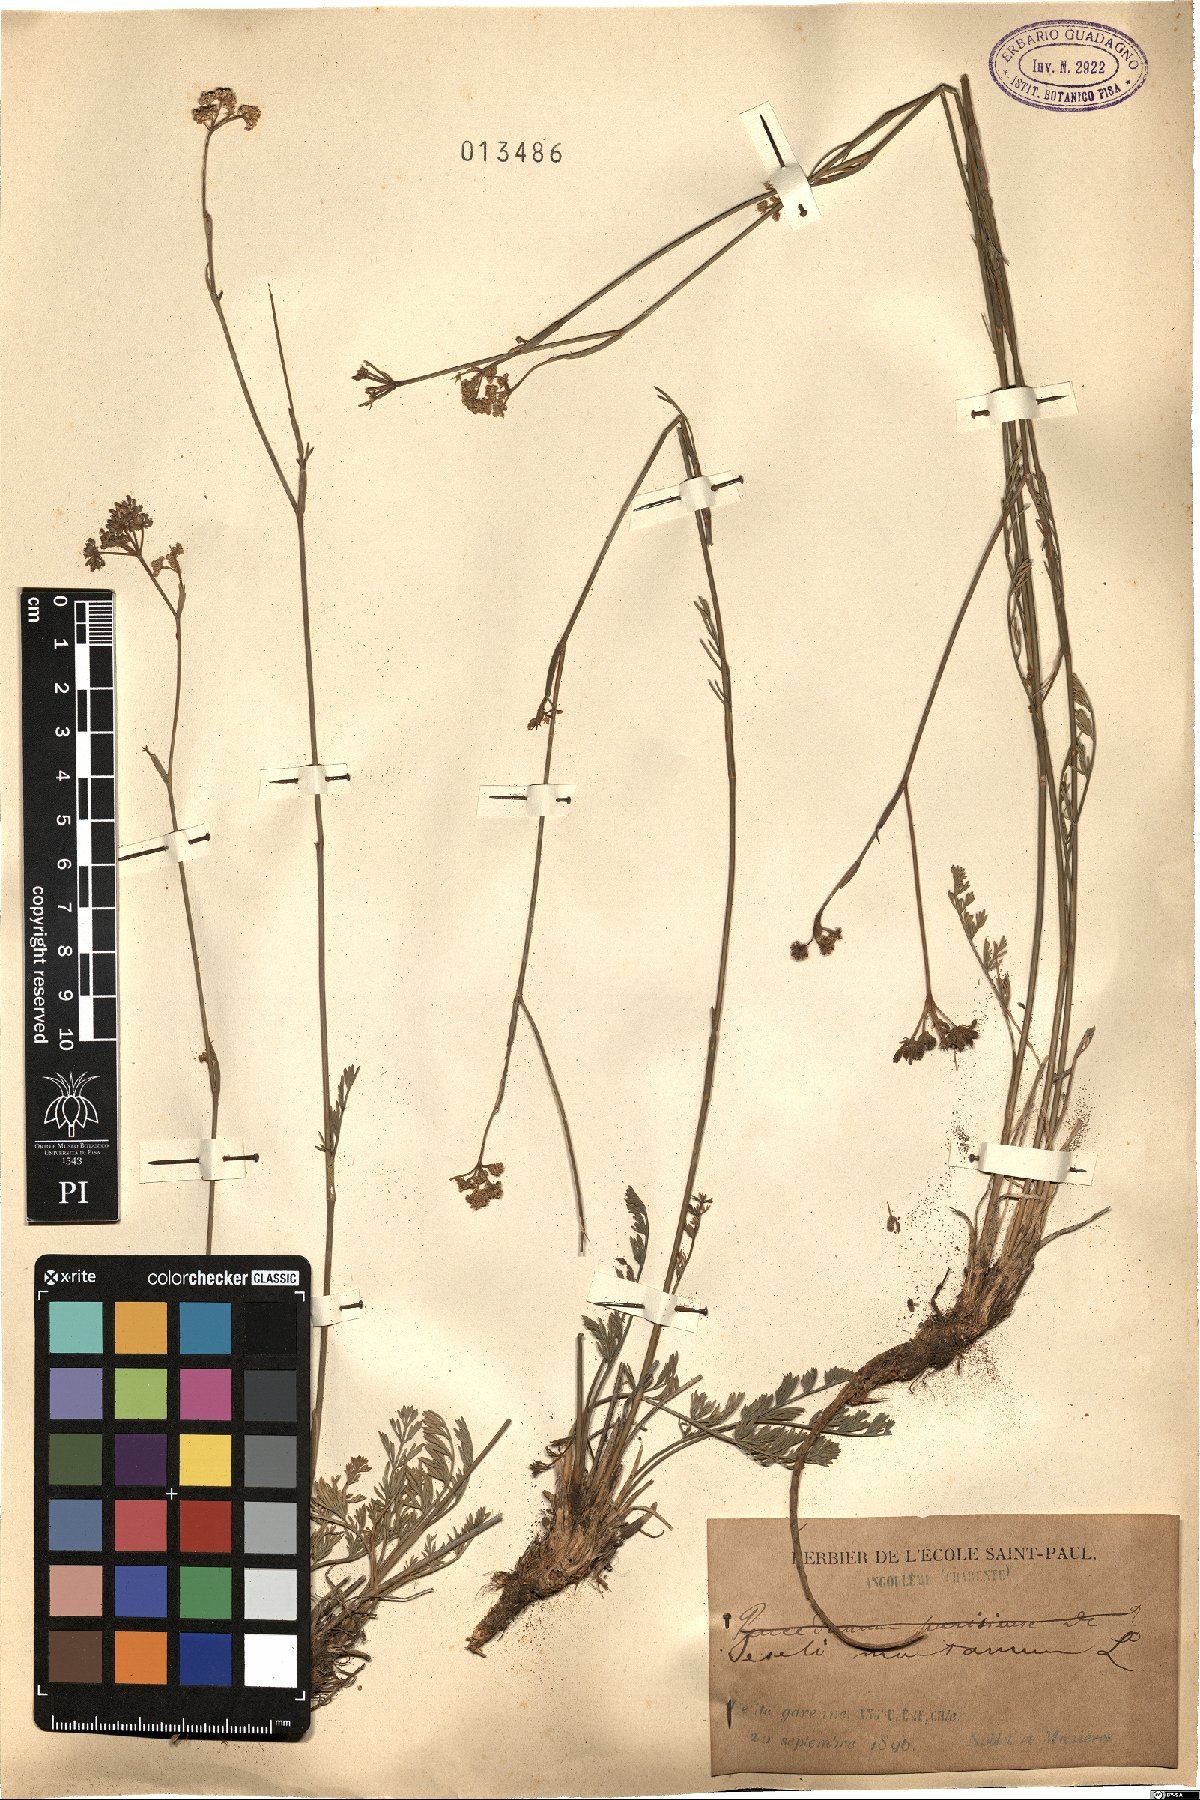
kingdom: Plantae
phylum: Tracheophyta
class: Magnoliopsida
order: Apiales
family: Apiaceae
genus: Seseli
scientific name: Seseli montanum
